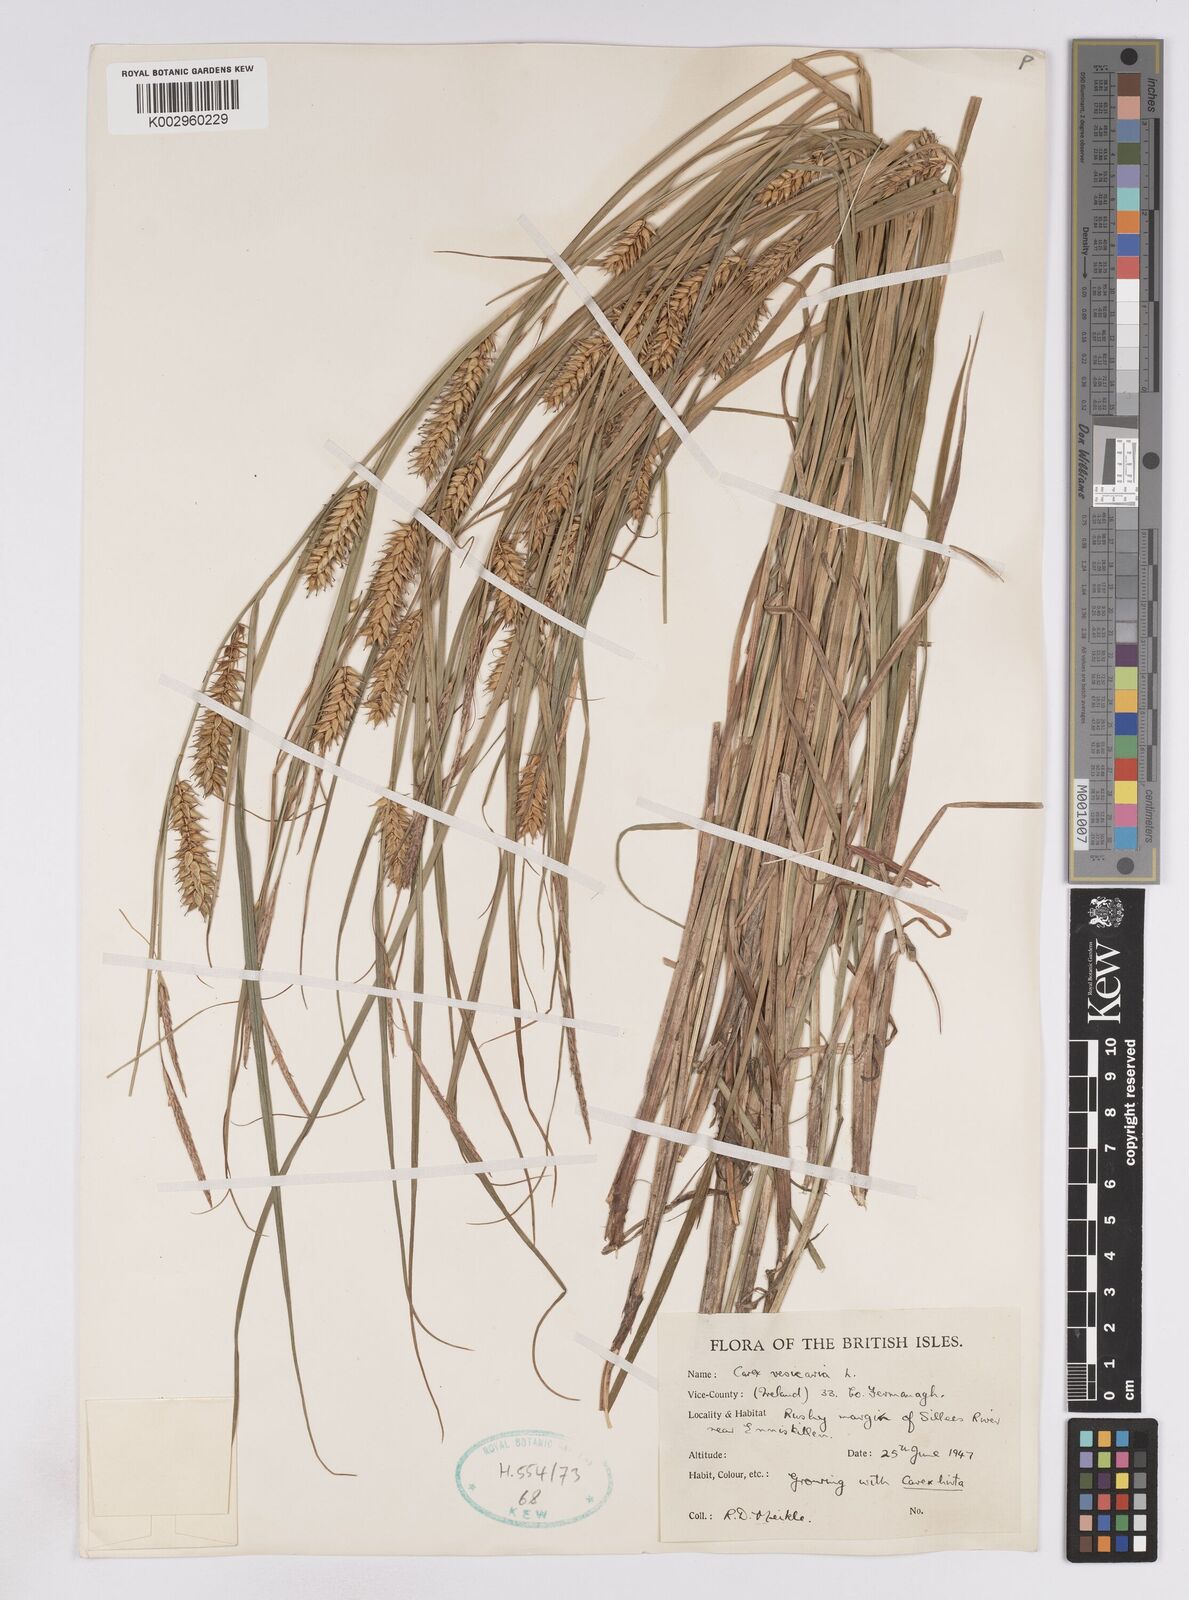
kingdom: Plantae
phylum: Tracheophyta
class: Liliopsida
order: Poales
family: Cyperaceae
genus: Carex
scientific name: Carex vesicaria
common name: Bladder-sedge
